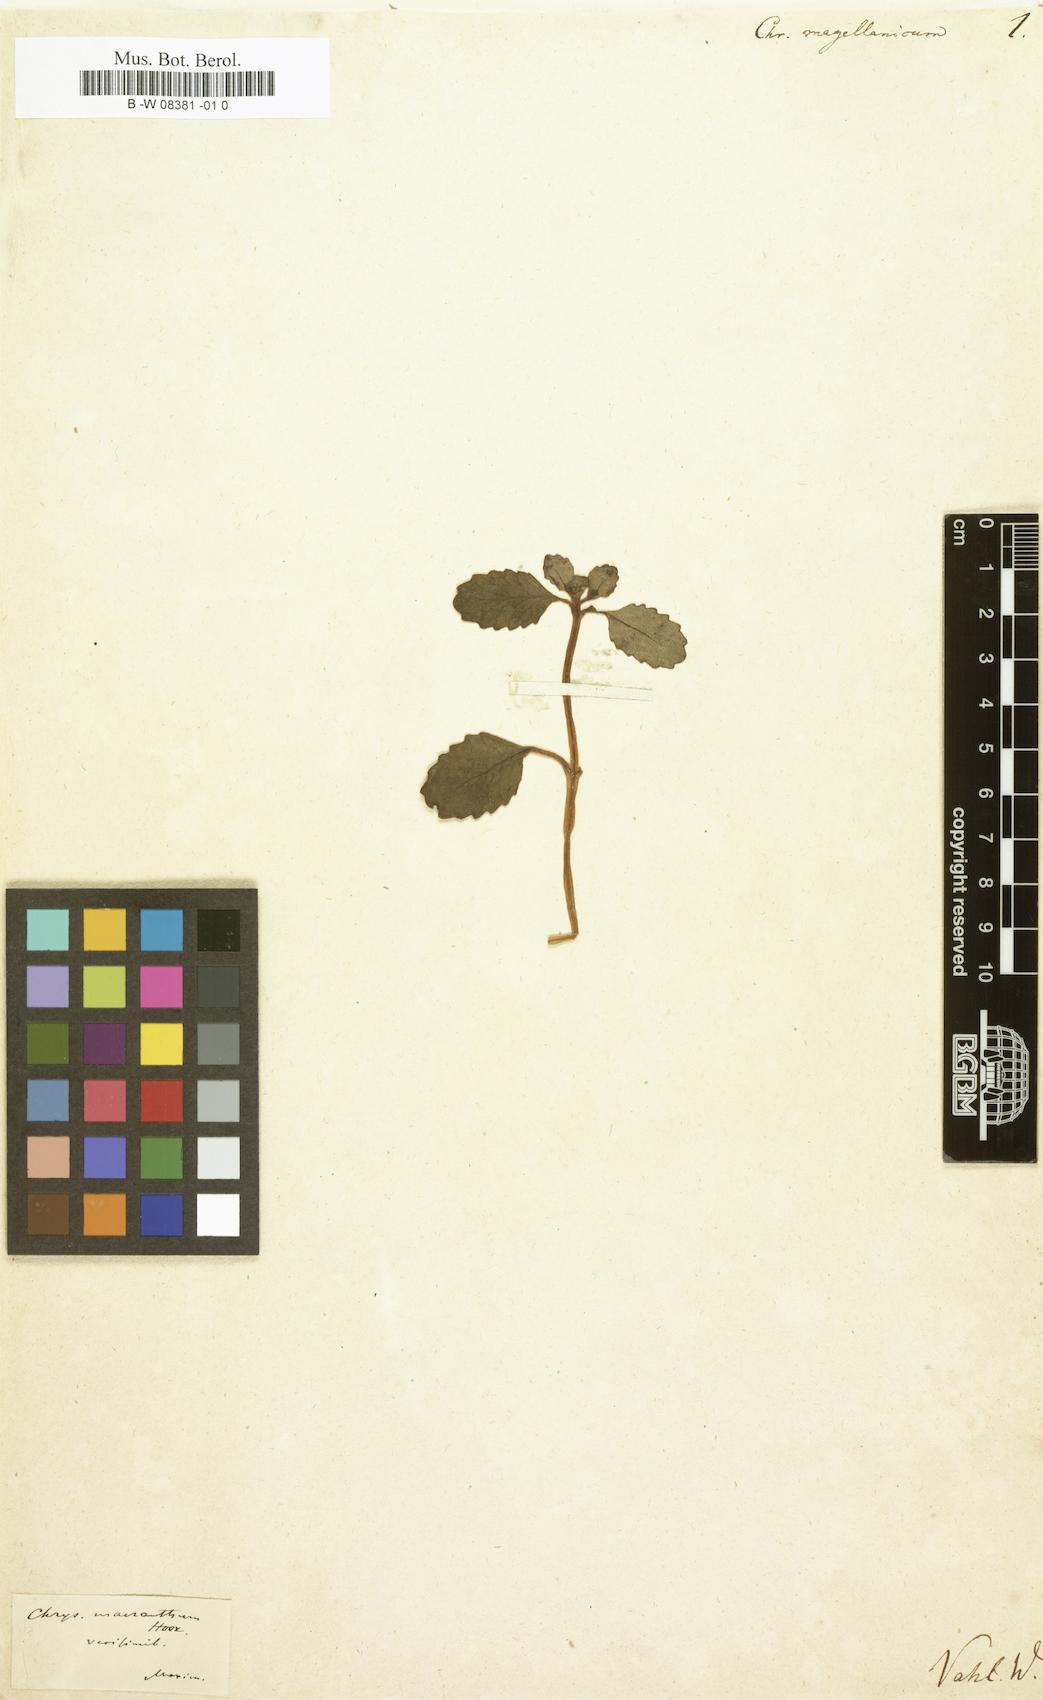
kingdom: Plantae
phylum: Tracheophyta
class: Magnoliopsida
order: Saxifragales
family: Saxifragaceae
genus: Chrysosplenium
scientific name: Chrysosplenium
